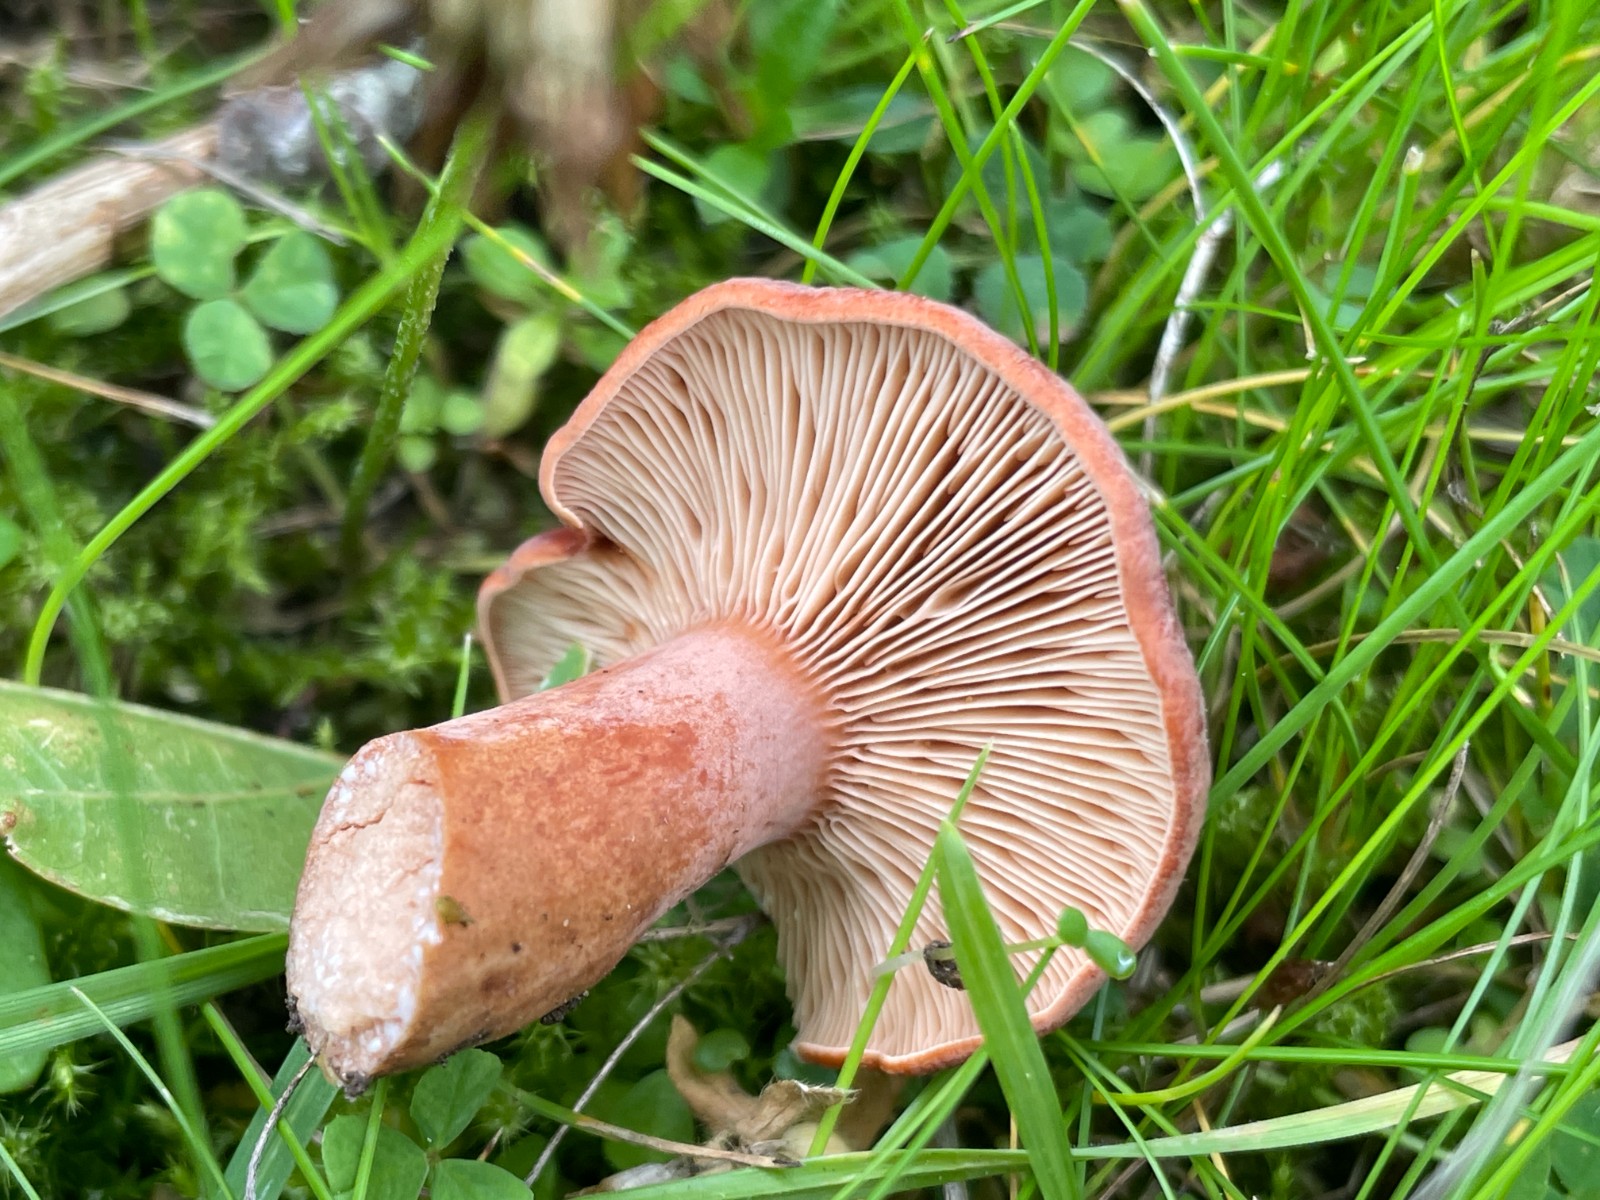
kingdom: Fungi
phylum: Basidiomycota
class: Agaricomycetes
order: Russulales
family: Russulaceae
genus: Lactarius
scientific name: Lactarius fulvissimus
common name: ræve-mælkehat
